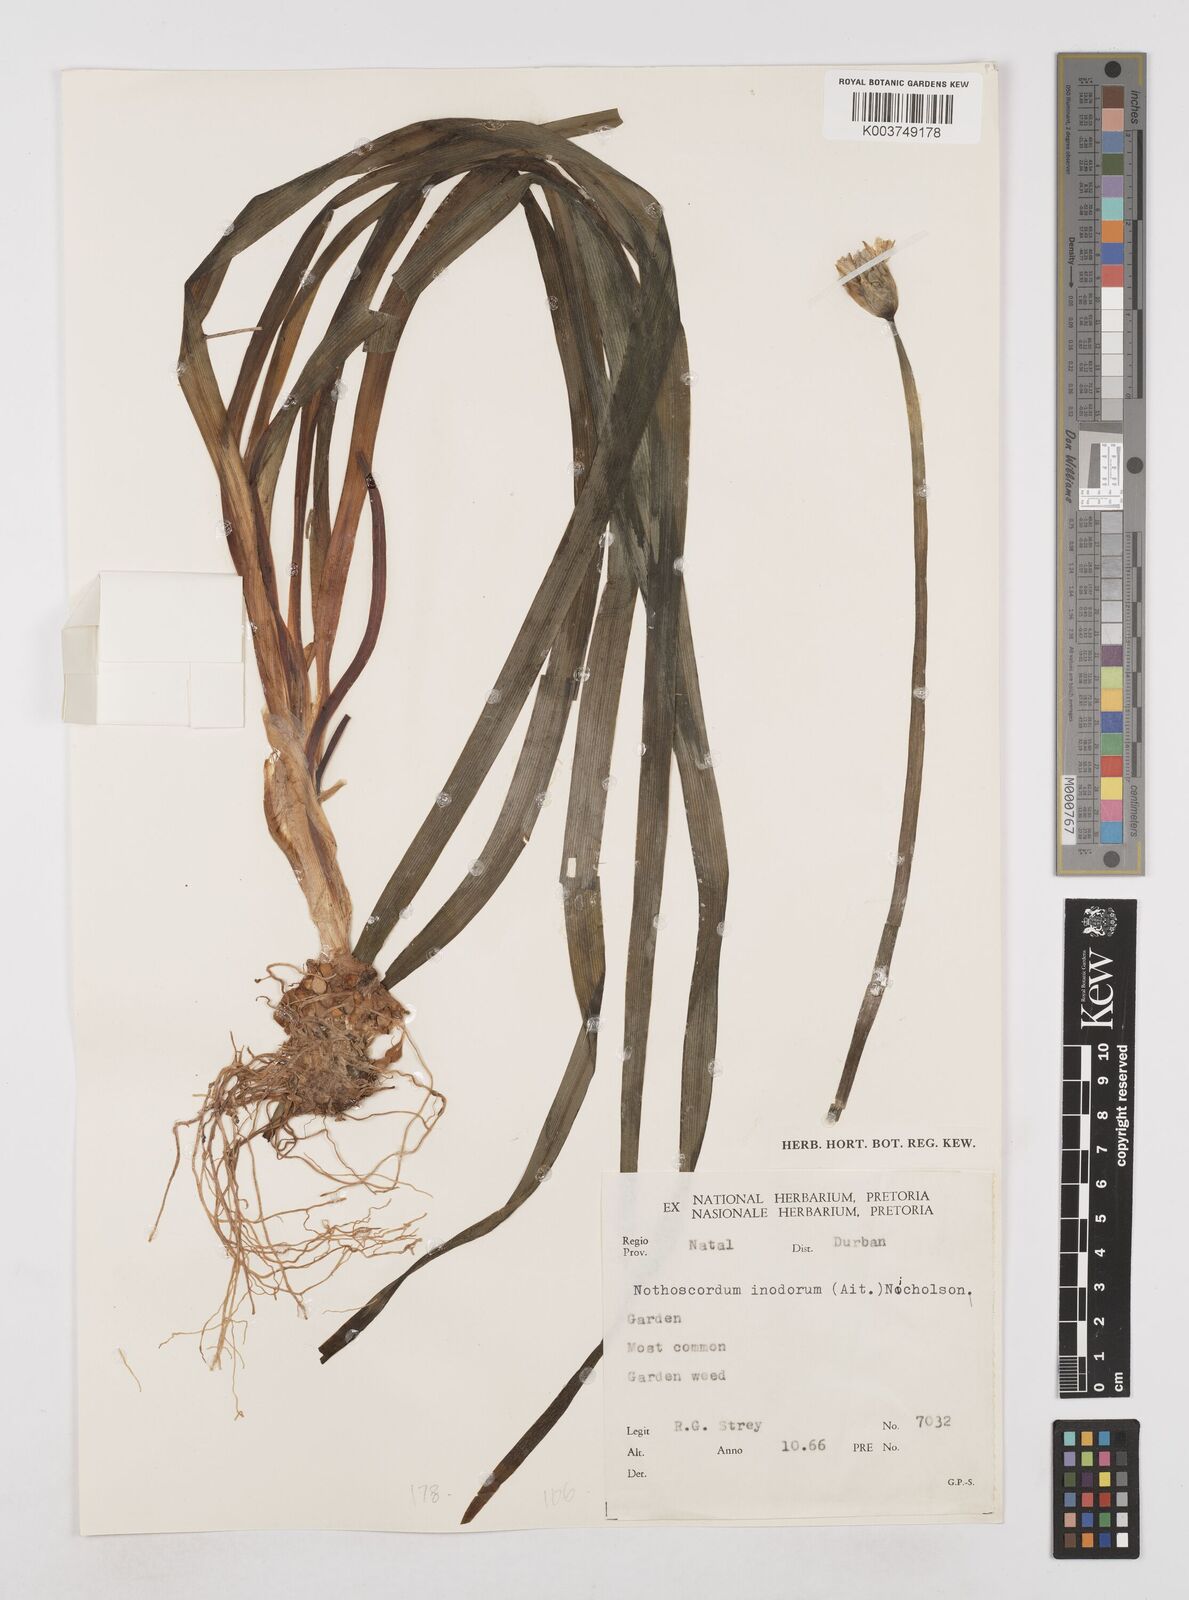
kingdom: Plantae
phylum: Tracheophyta
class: Liliopsida
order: Asparagales
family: Amaryllidaceae
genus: Allium
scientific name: Allium neapolitanum
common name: Neapolitan garlic
